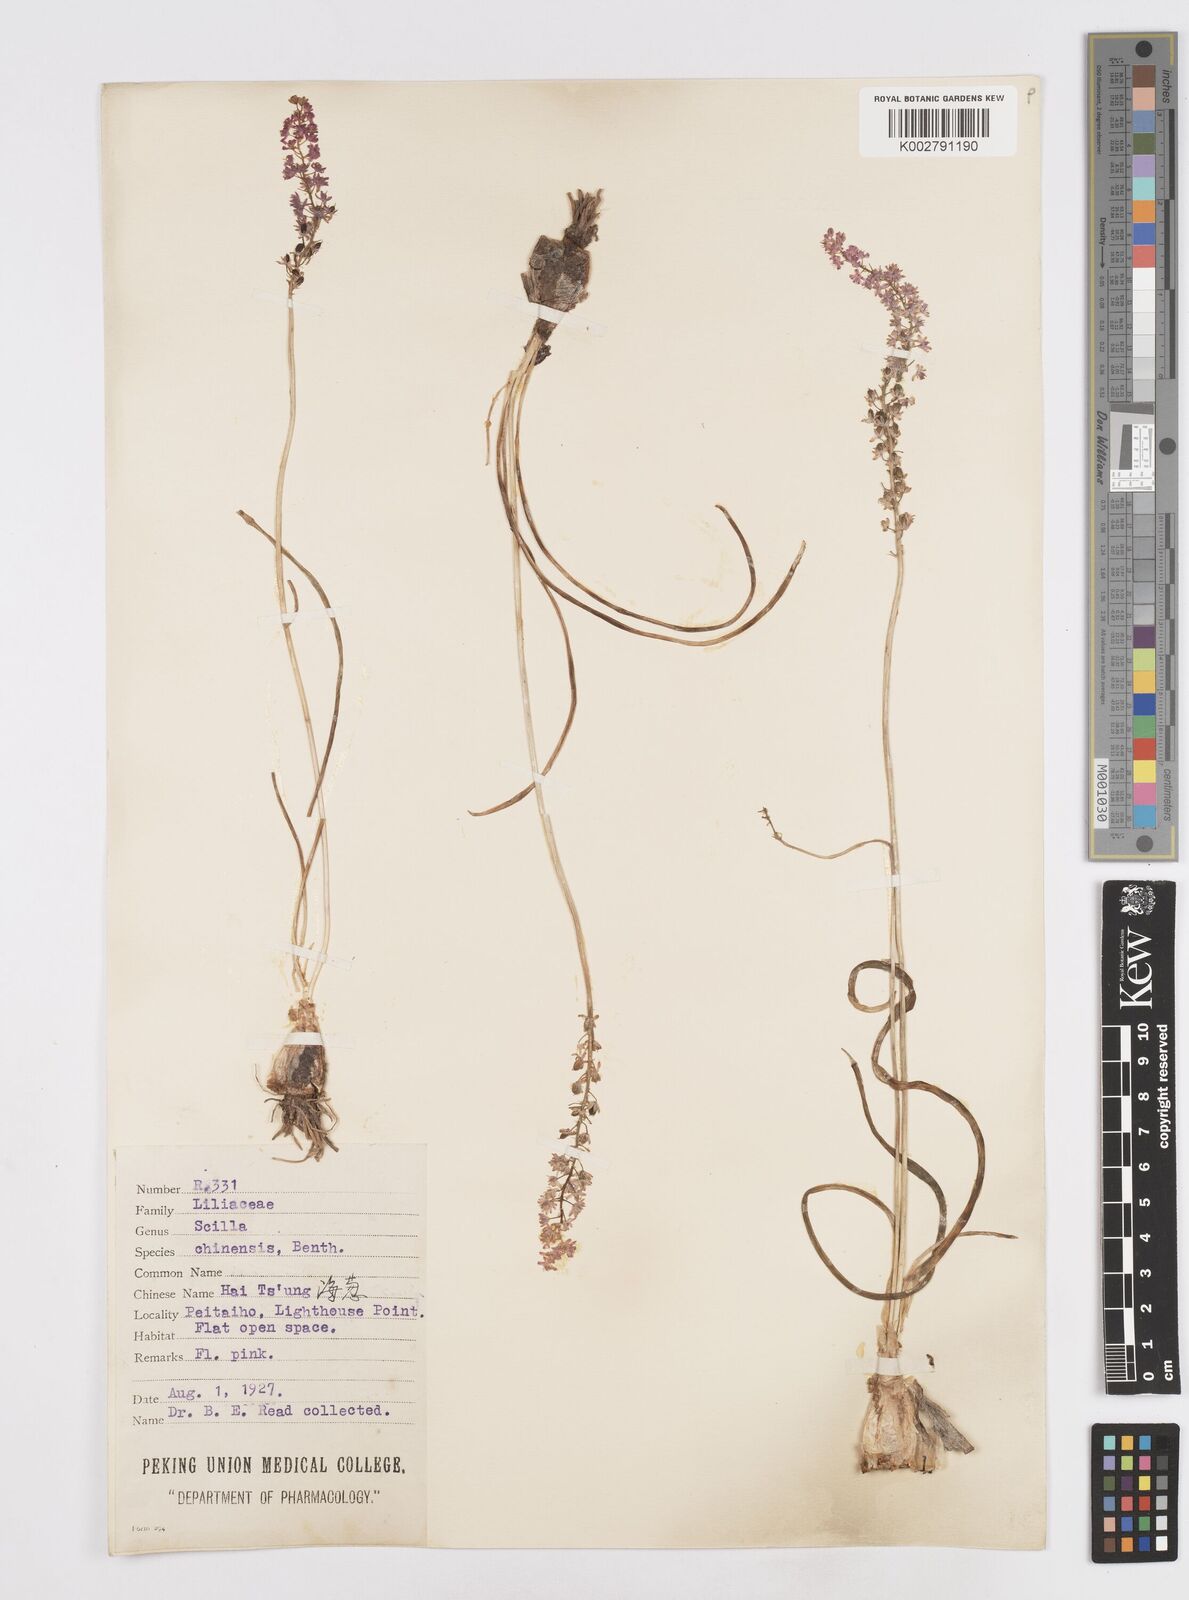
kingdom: Plantae
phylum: Tracheophyta
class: Liliopsida
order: Asparagales
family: Asparagaceae
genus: Barnardia
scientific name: Barnardia japonica
